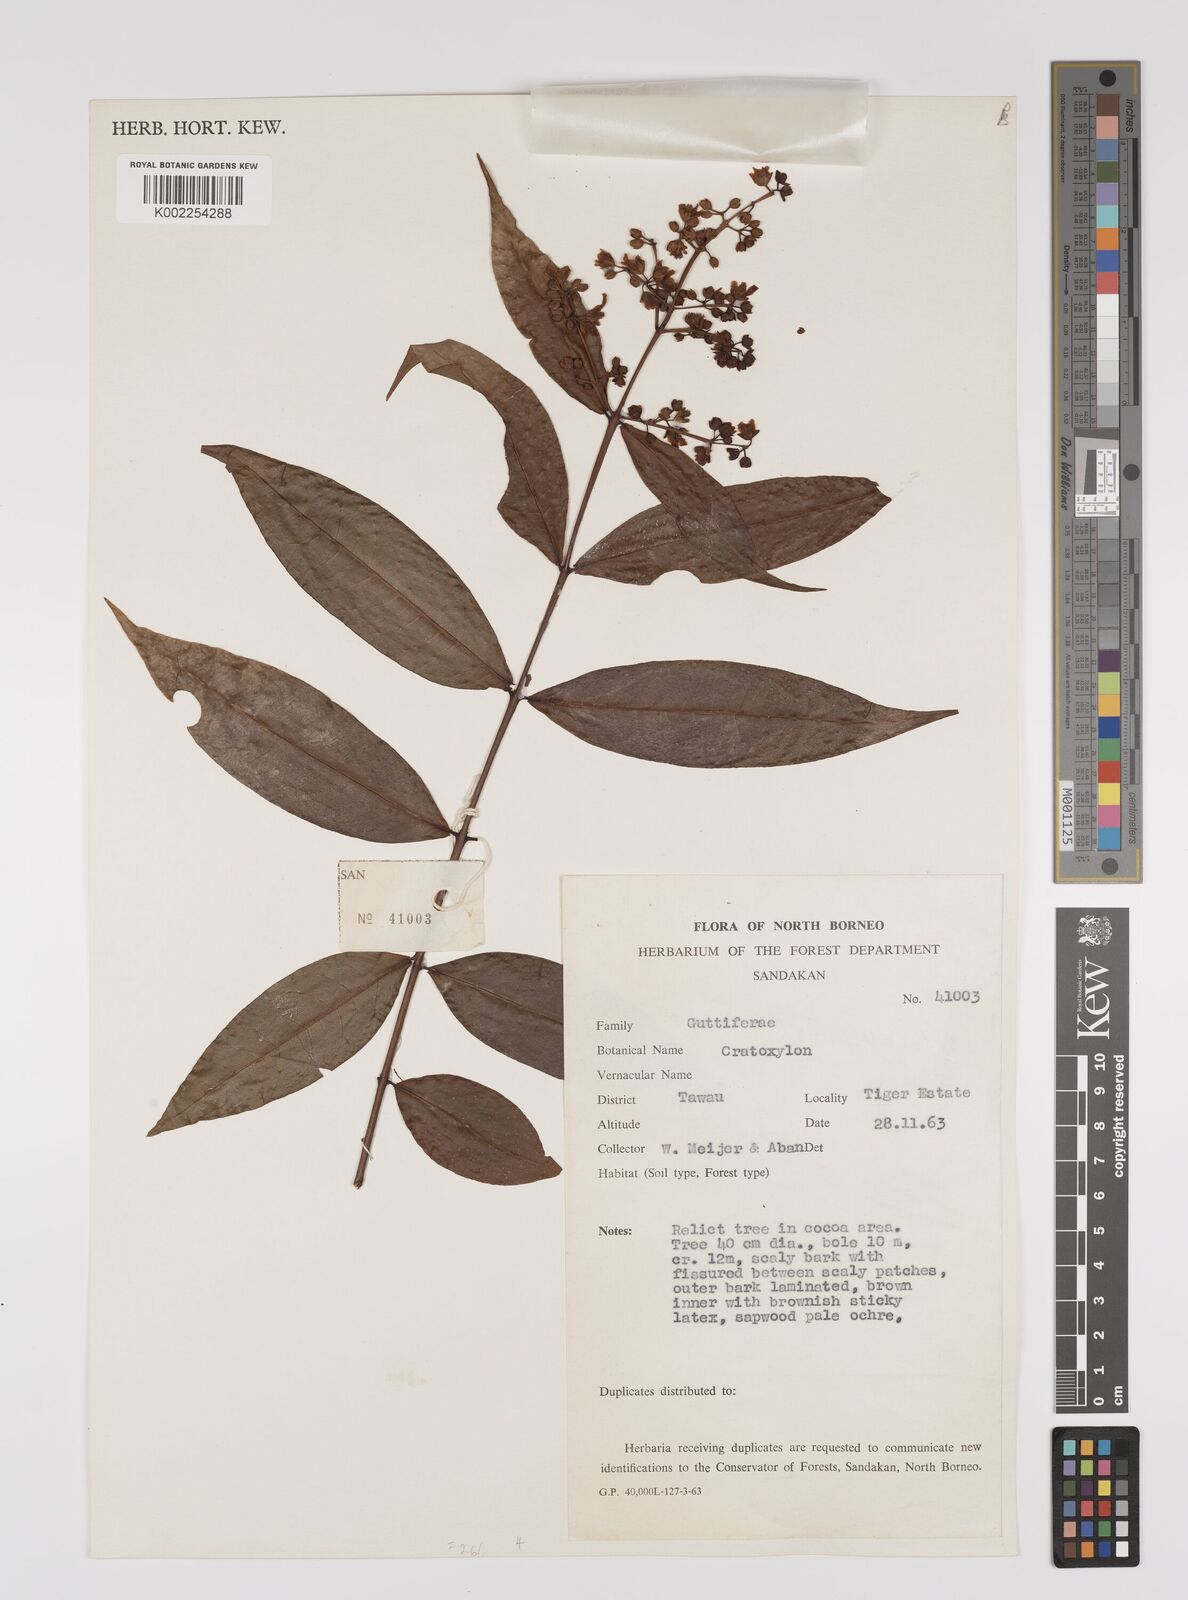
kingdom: Plantae
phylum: Tracheophyta
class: Magnoliopsida
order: Malpighiales
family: Hypericaceae
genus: Cratoxylum
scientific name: Cratoxylum
